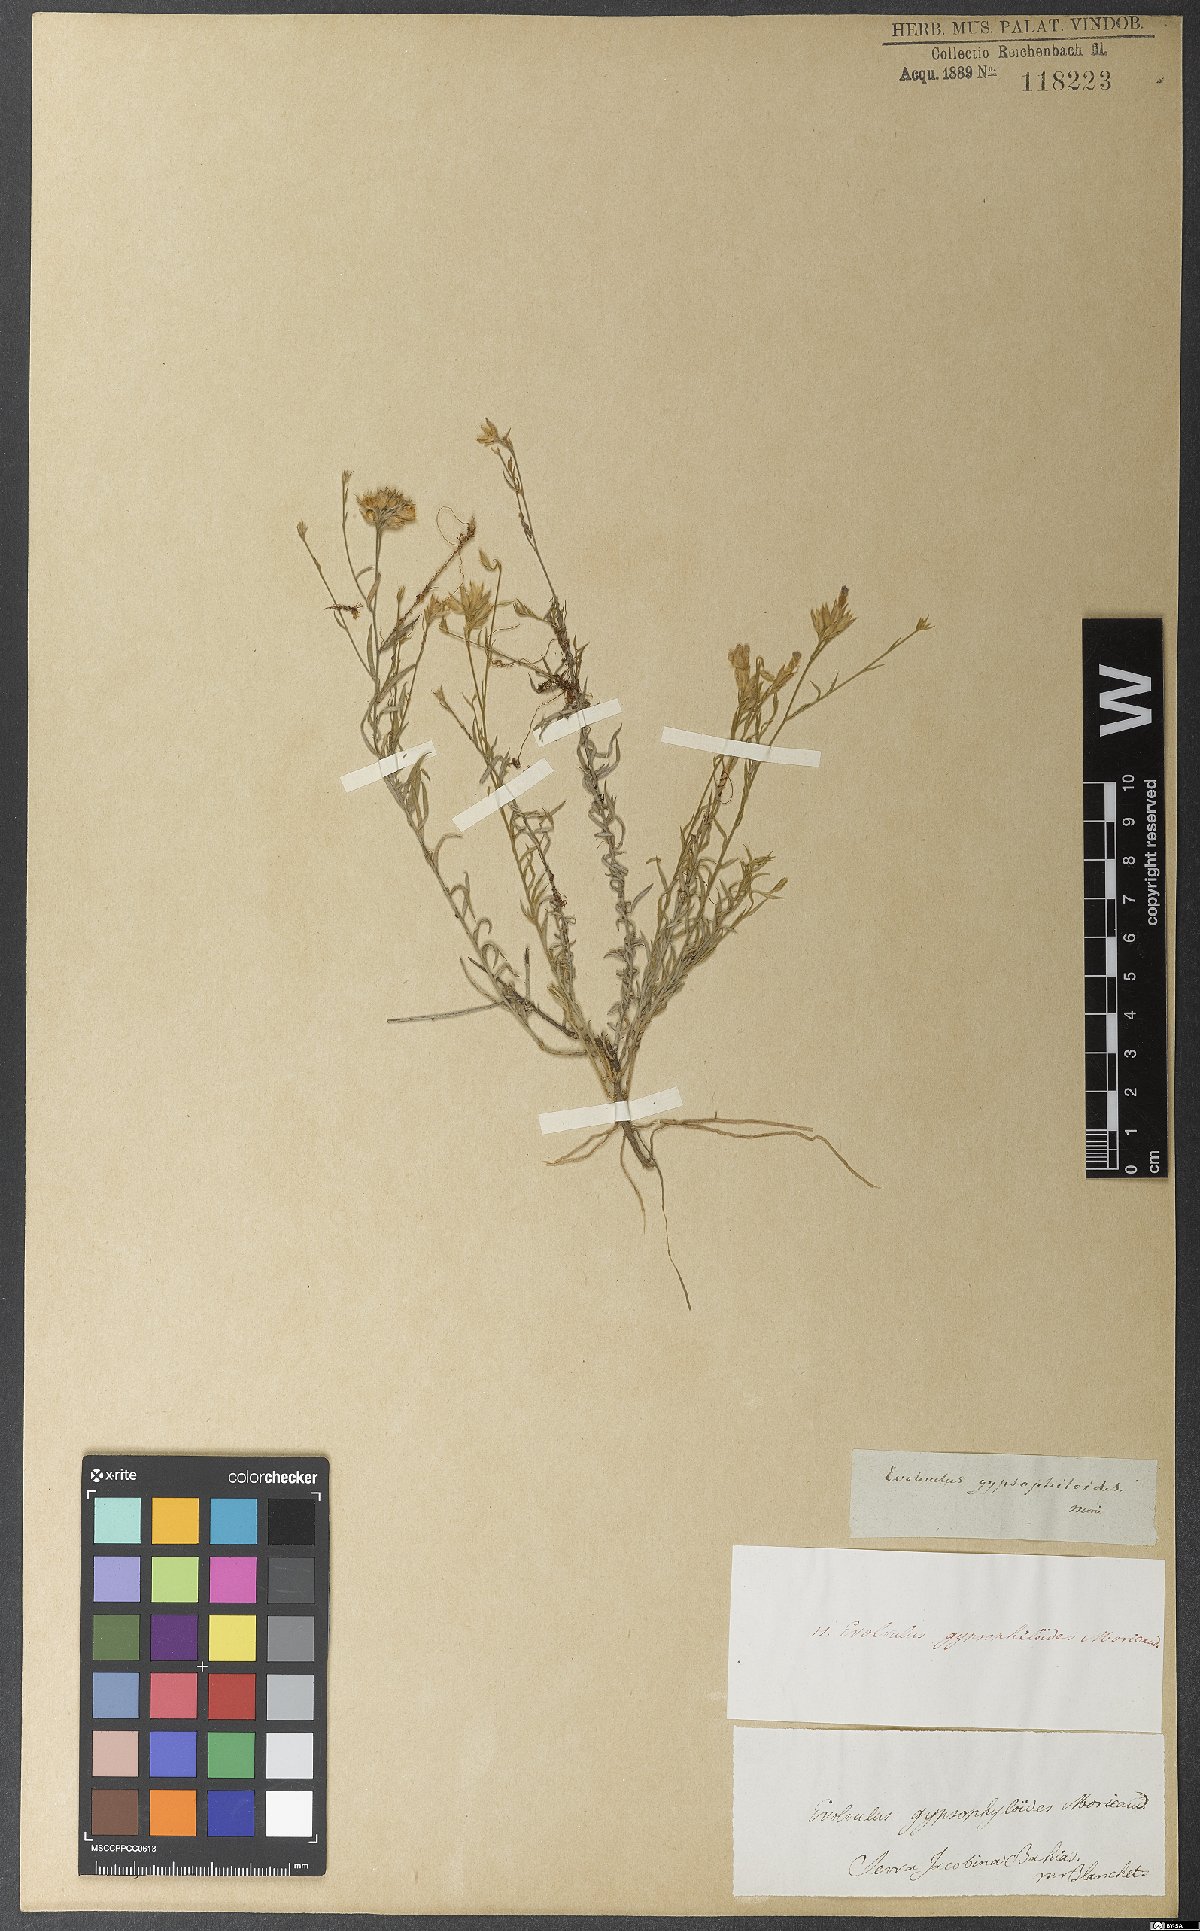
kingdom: Plantae
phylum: Tracheophyta
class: Magnoliopsida
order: Solanales
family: Convolvulaceae
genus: Evolvulus
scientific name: Evolvulus gypsophiloides
